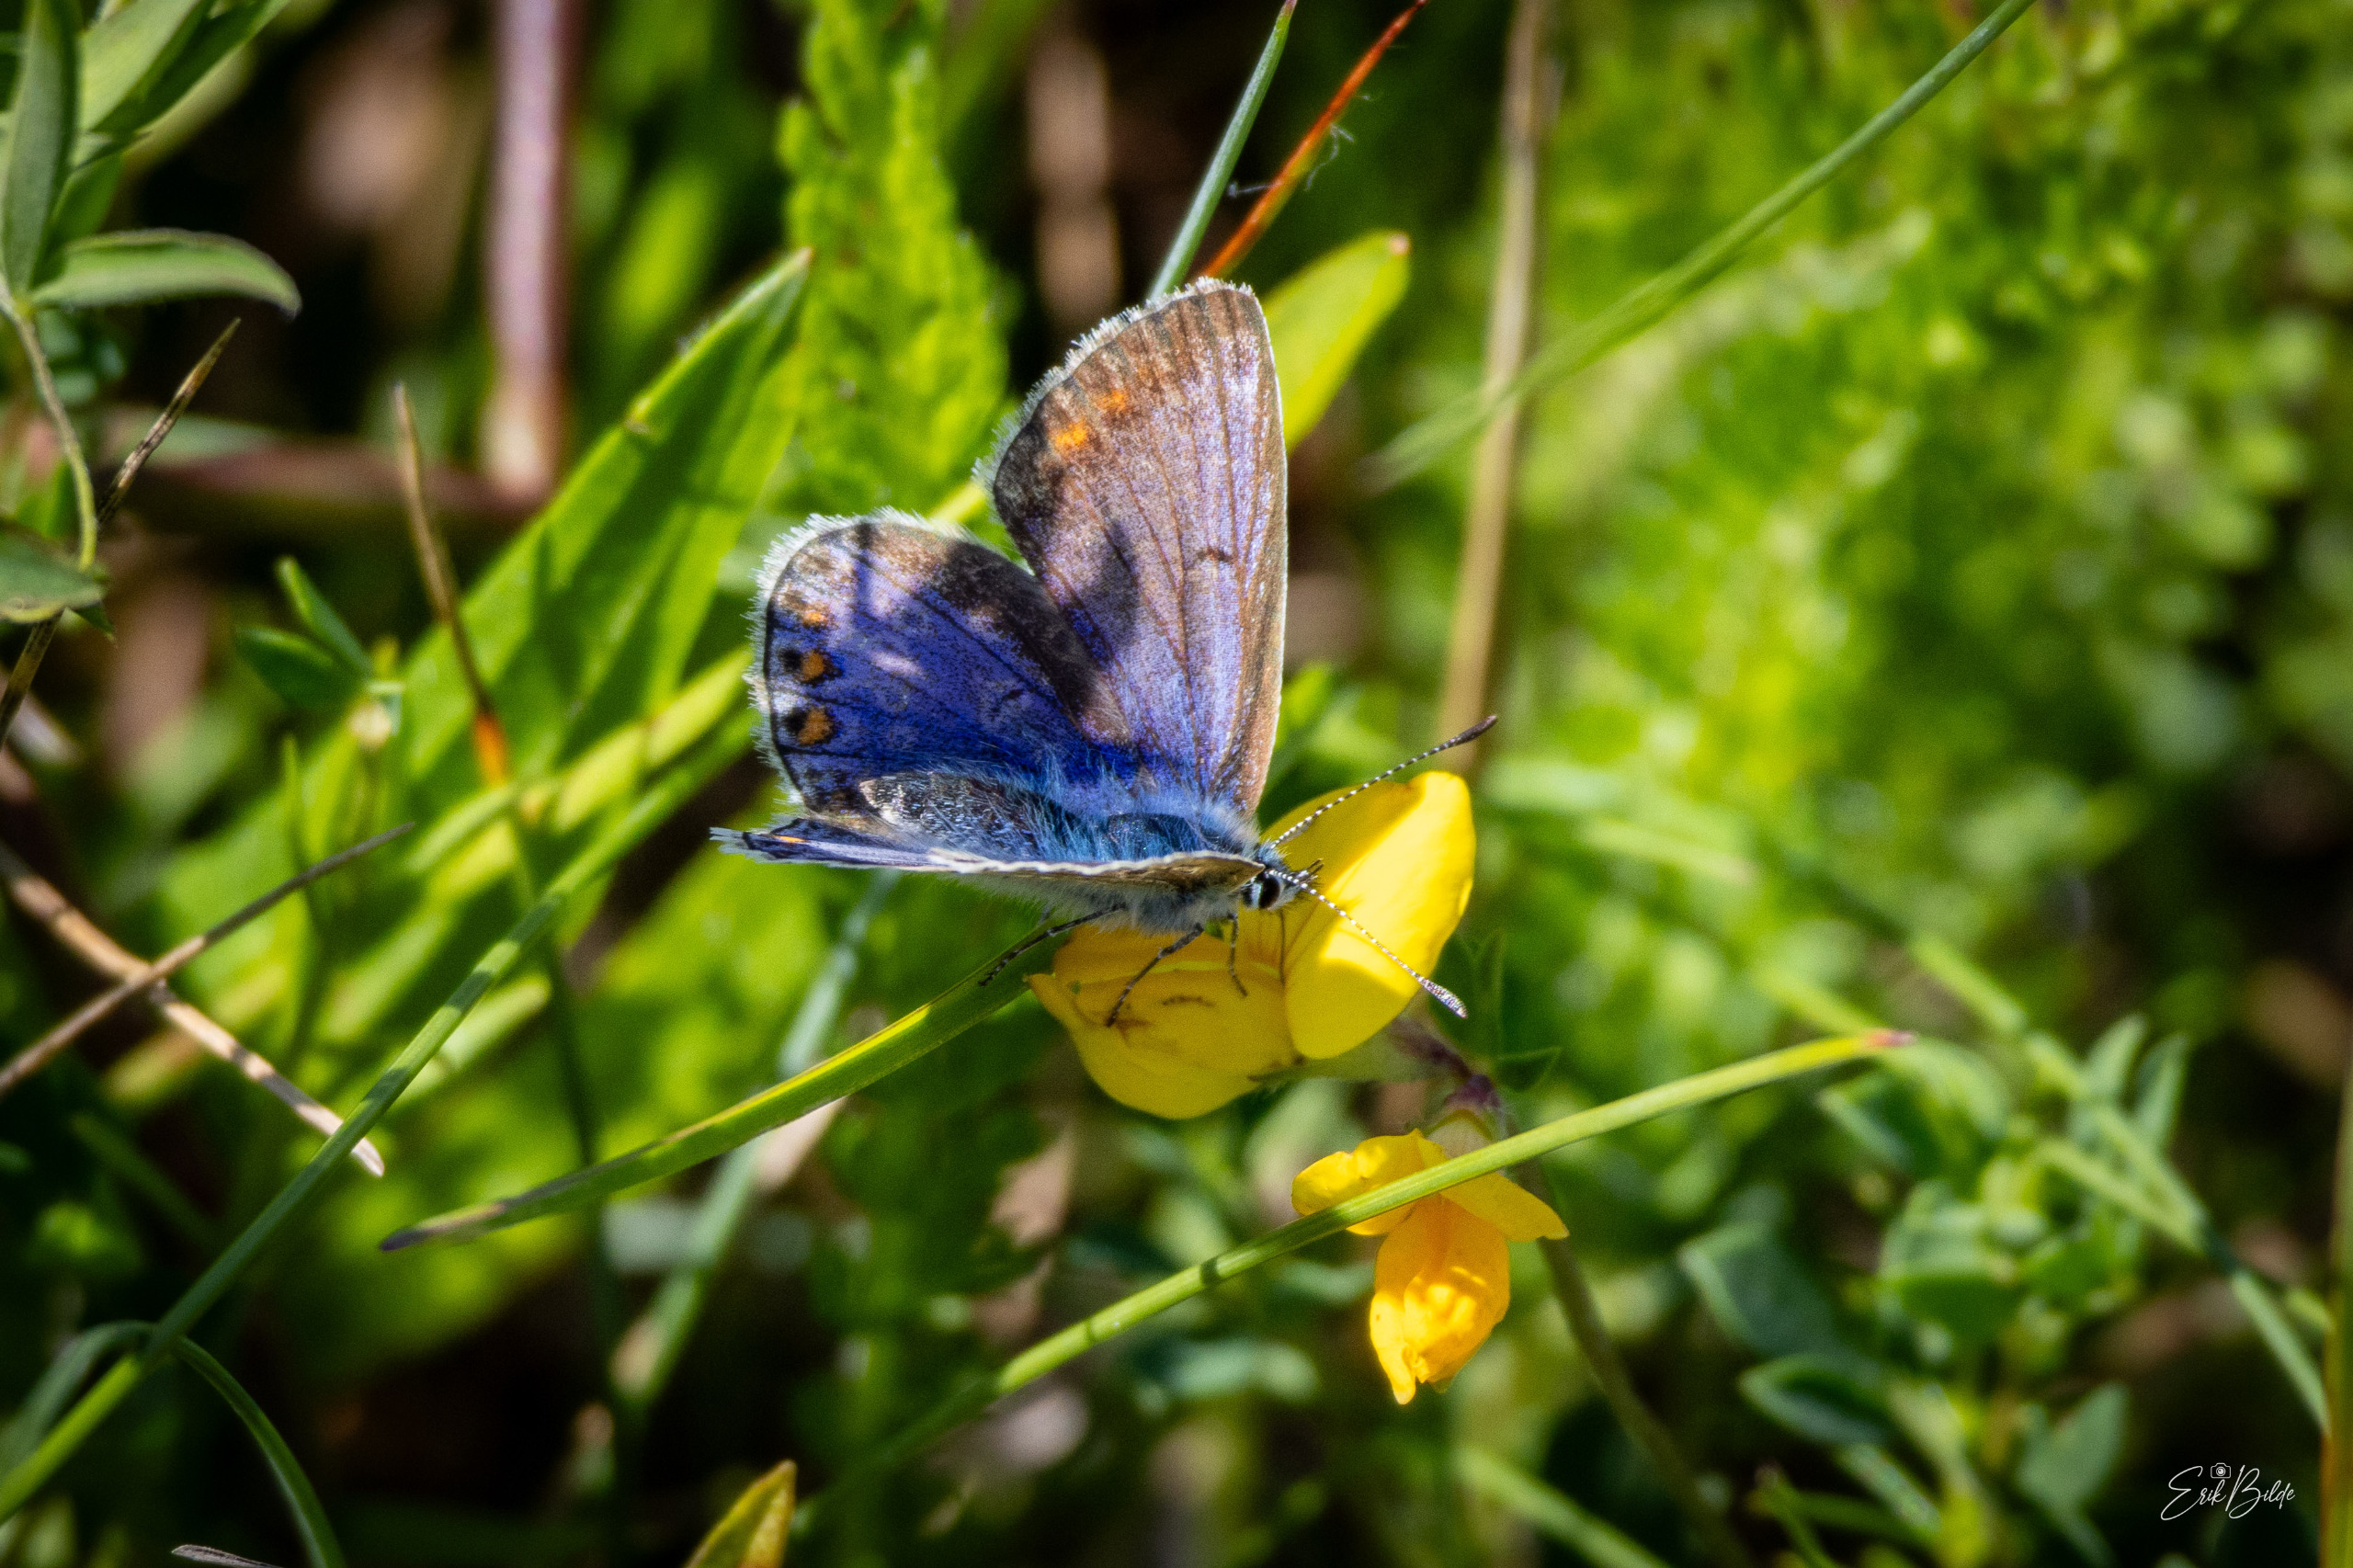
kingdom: Animalia
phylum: Arthropoda
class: Insecta
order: Lepidoptera
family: Lycaenidae
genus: Polyommatus
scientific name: Polyommatus icarus
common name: Almindelig blåfugl
